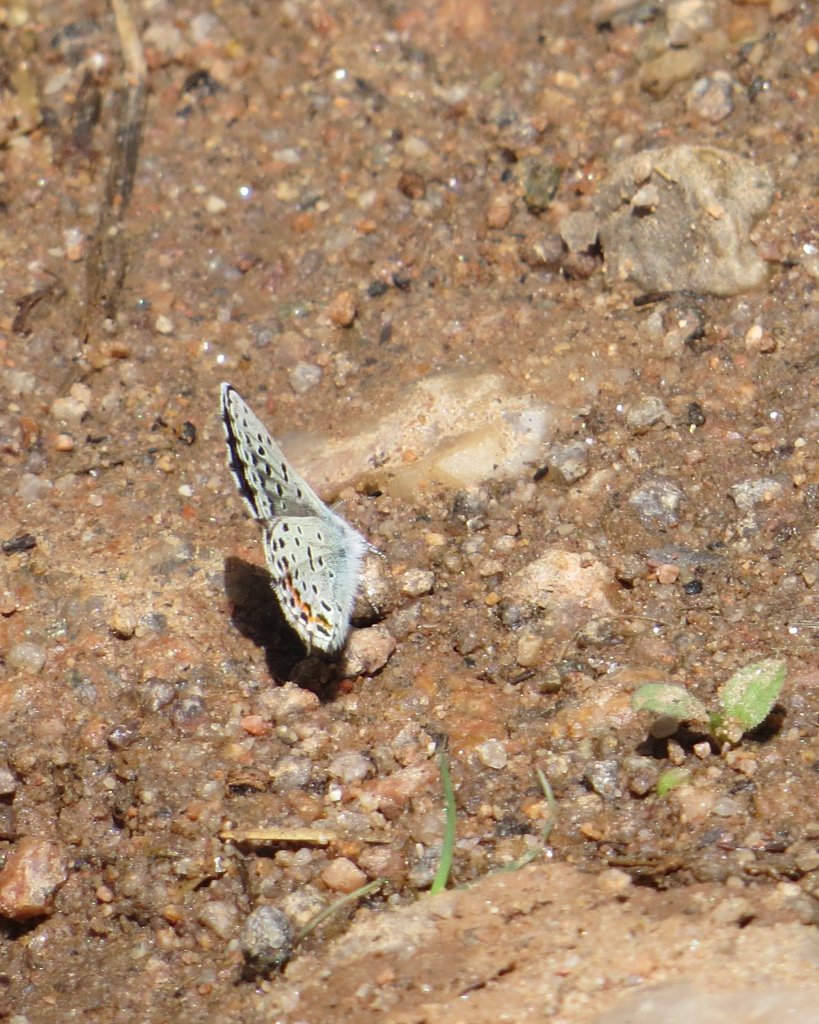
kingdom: Animalia
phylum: Arthropoda
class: Insecta
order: Lepidoptera
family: Lycaenidae
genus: Euphilotes
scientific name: Euphilotes enoptes
